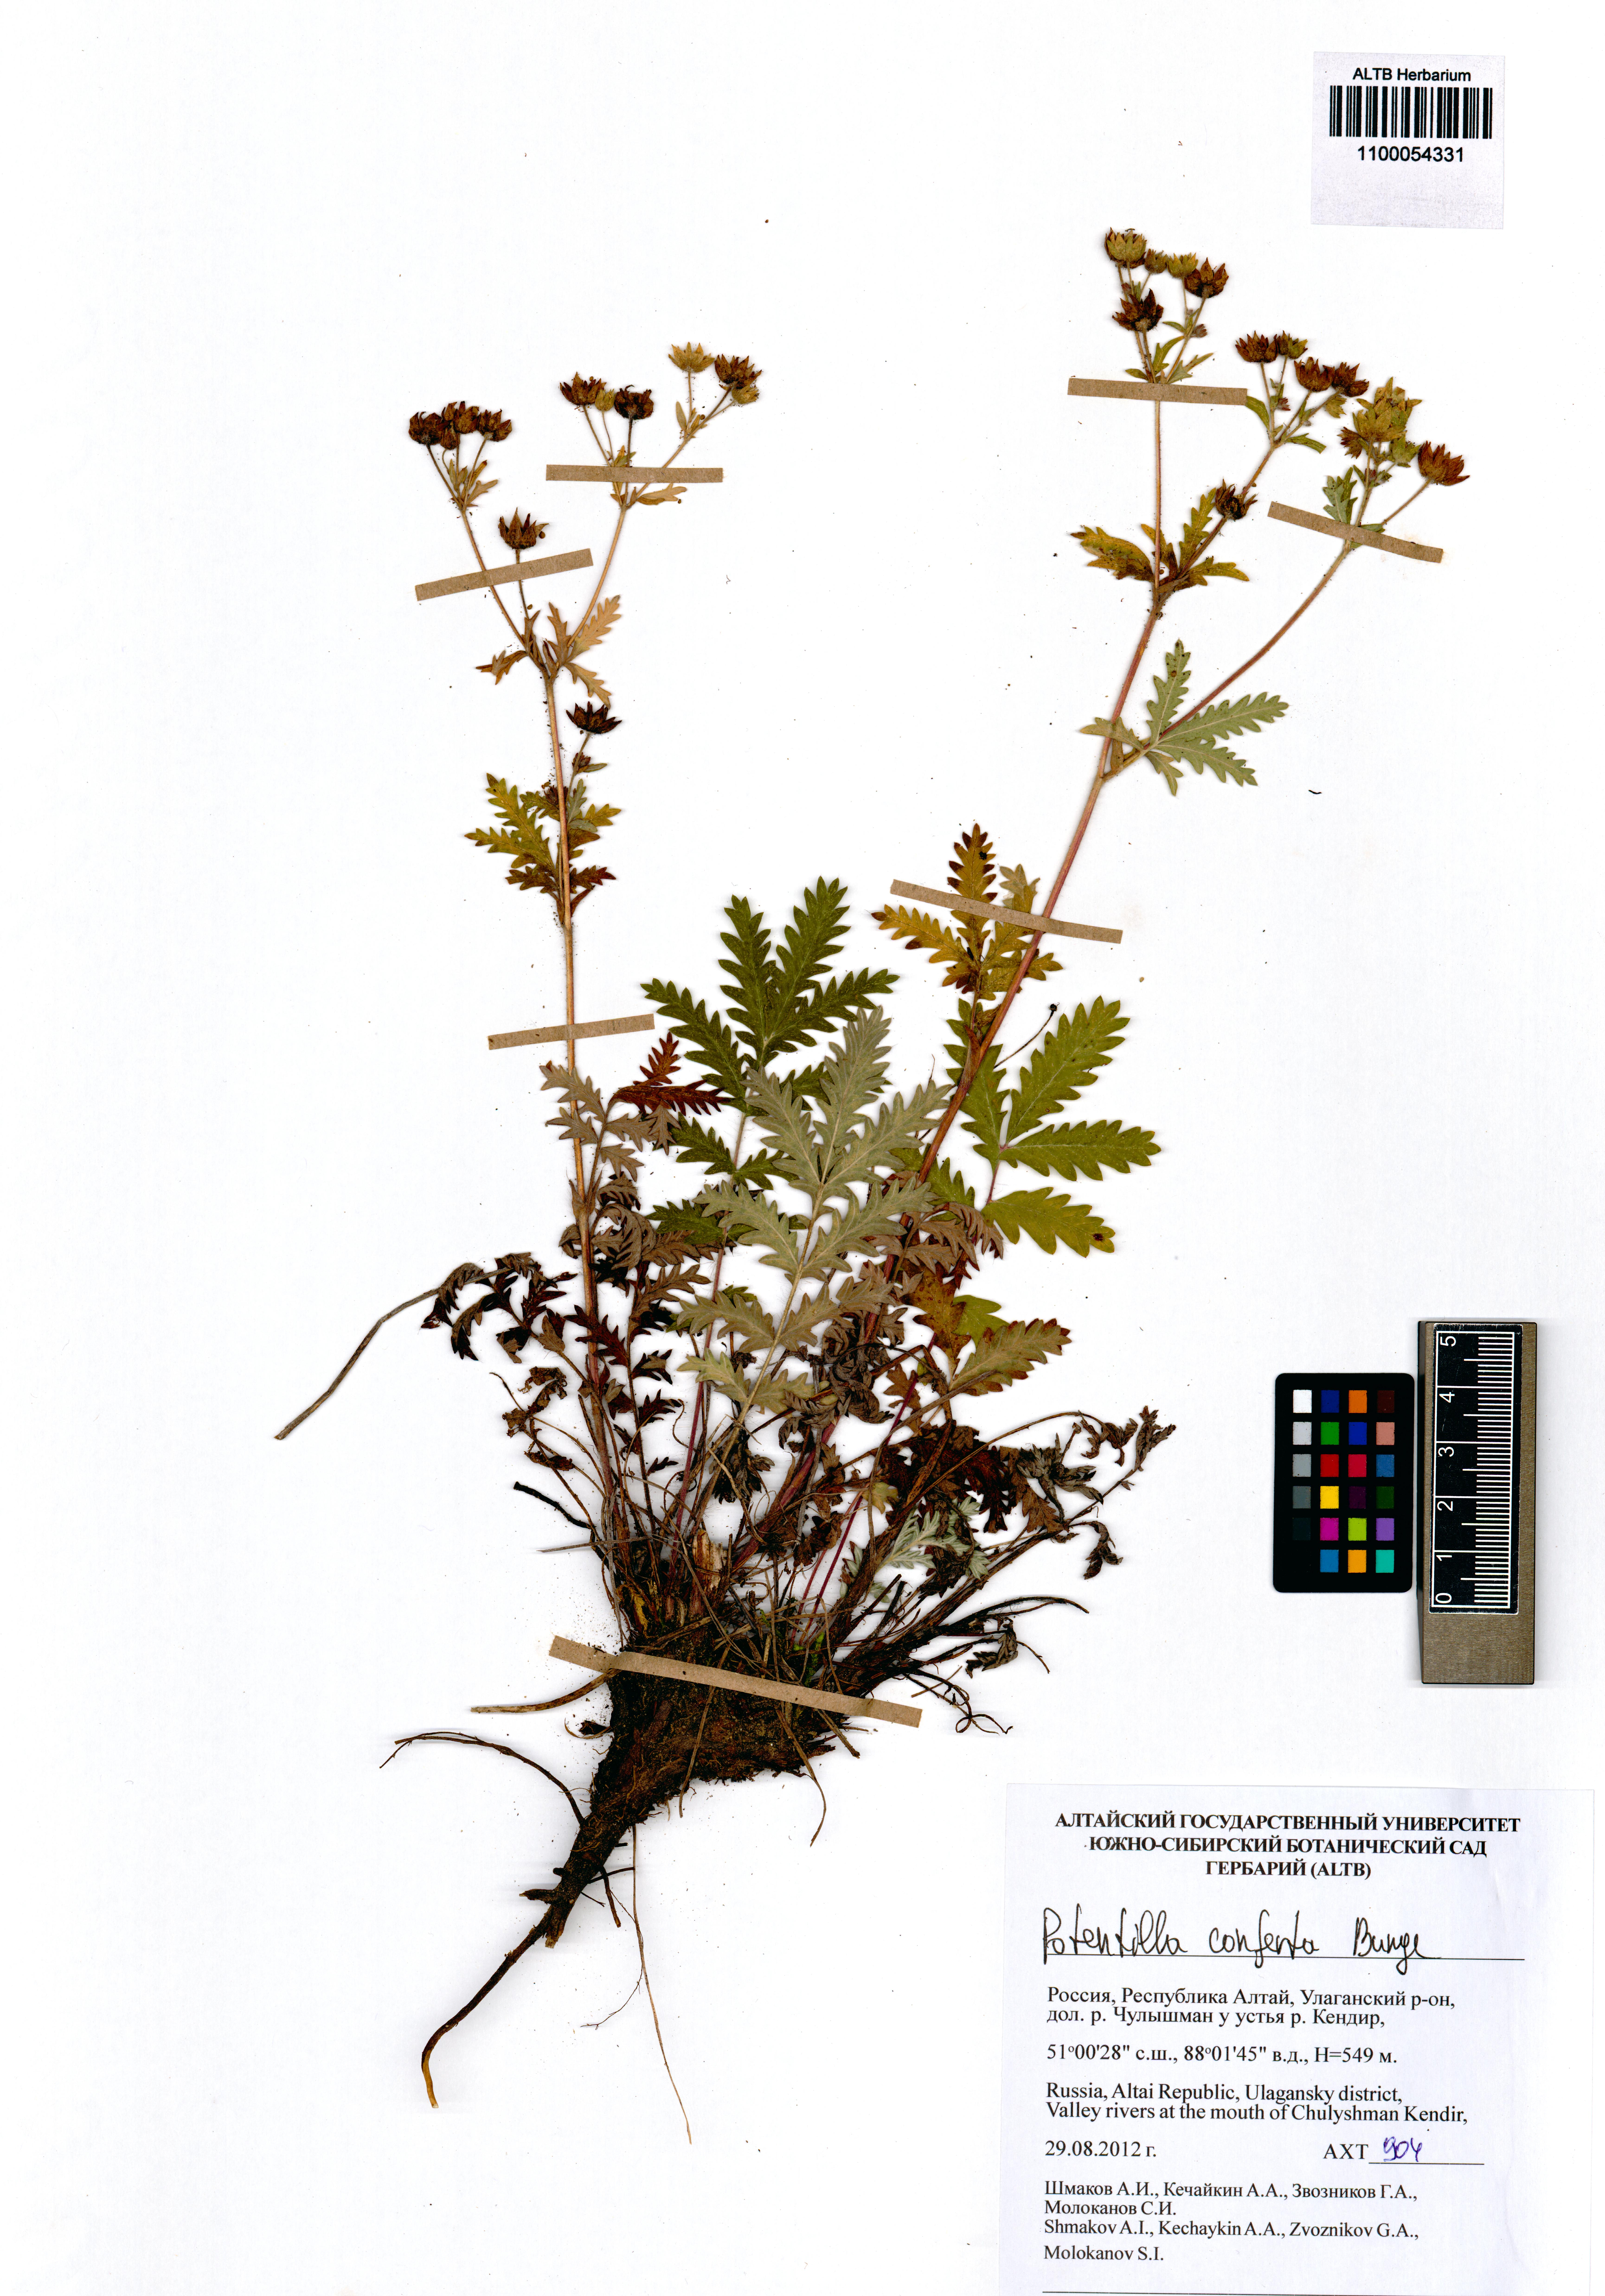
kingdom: Plantae
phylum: Tracheophyta
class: Magnoliopsida
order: Rosales
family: Rosaceae
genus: Potentilla
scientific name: Potentilla conferta
